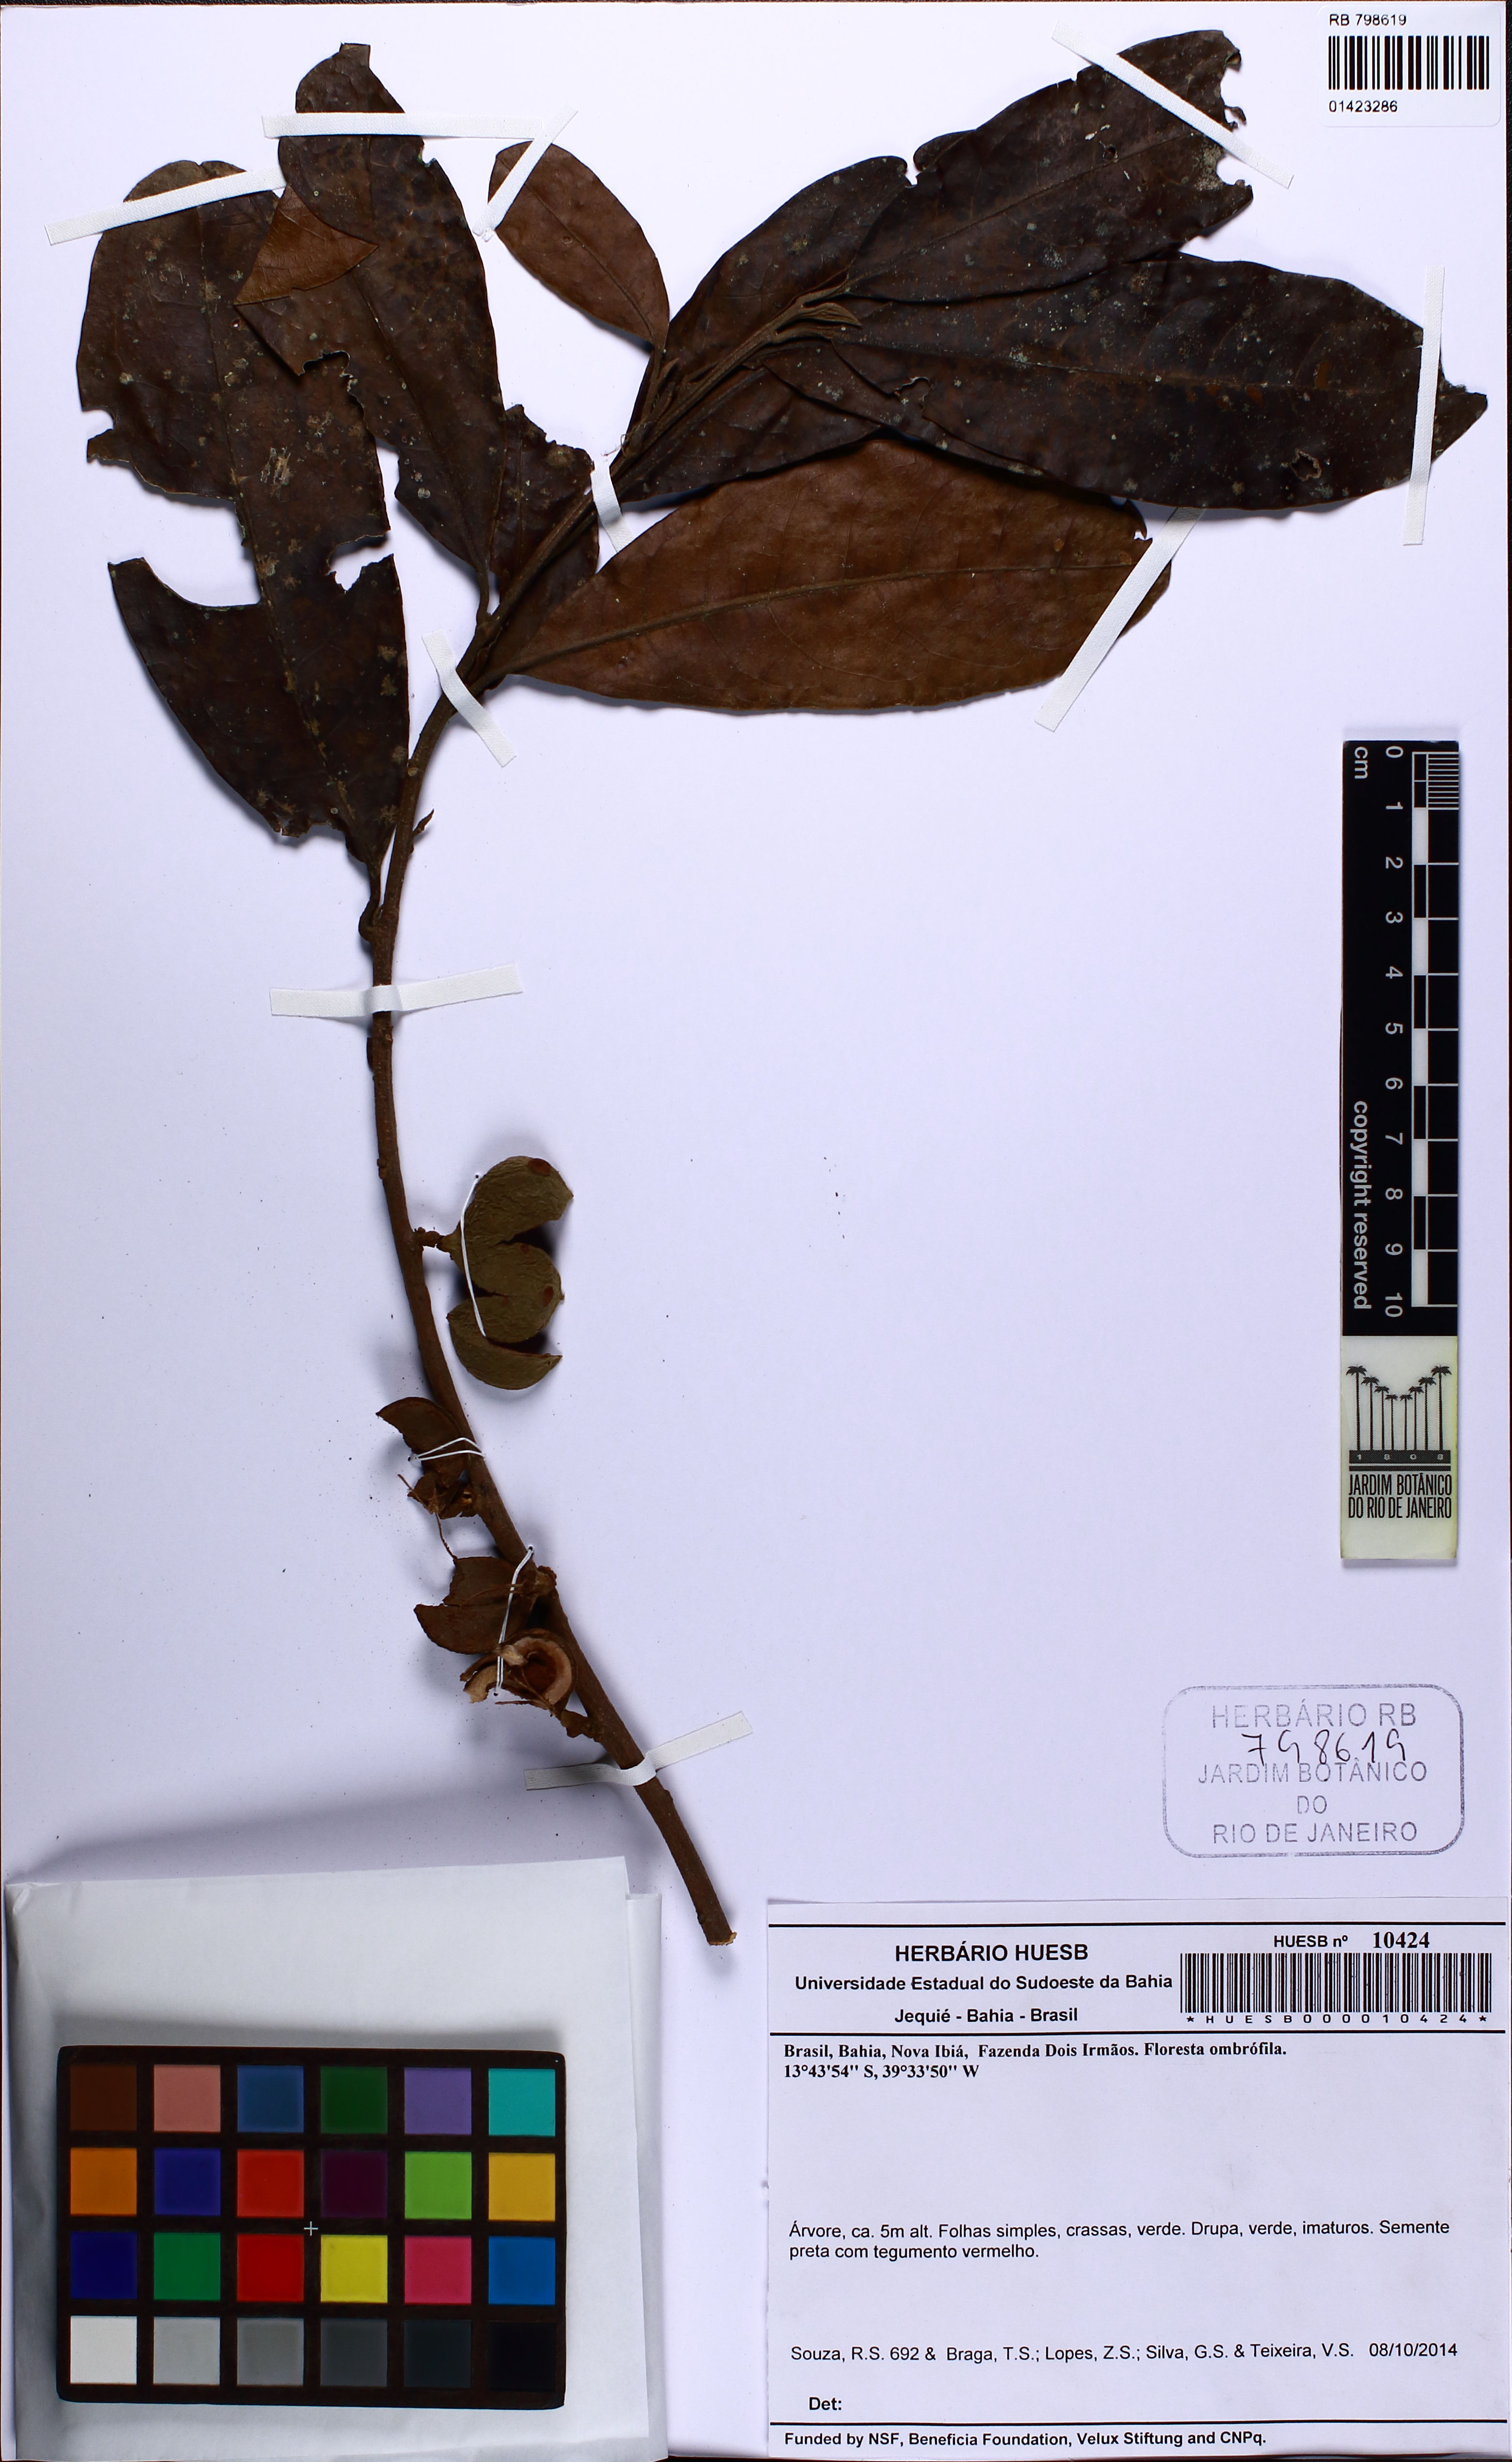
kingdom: Plantae
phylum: Tracheophyta
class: Magnoliopsida
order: Malpighiales
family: Peraceae
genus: Pera
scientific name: Pera
